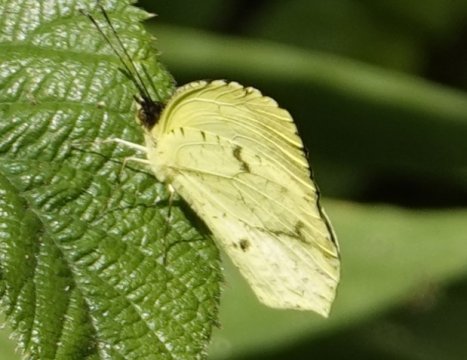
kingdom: Animalia
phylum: Arthropoda
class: Insecta
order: Lepidoptera
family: Pieridae
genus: Eurema
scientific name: Eurema xantochlora
